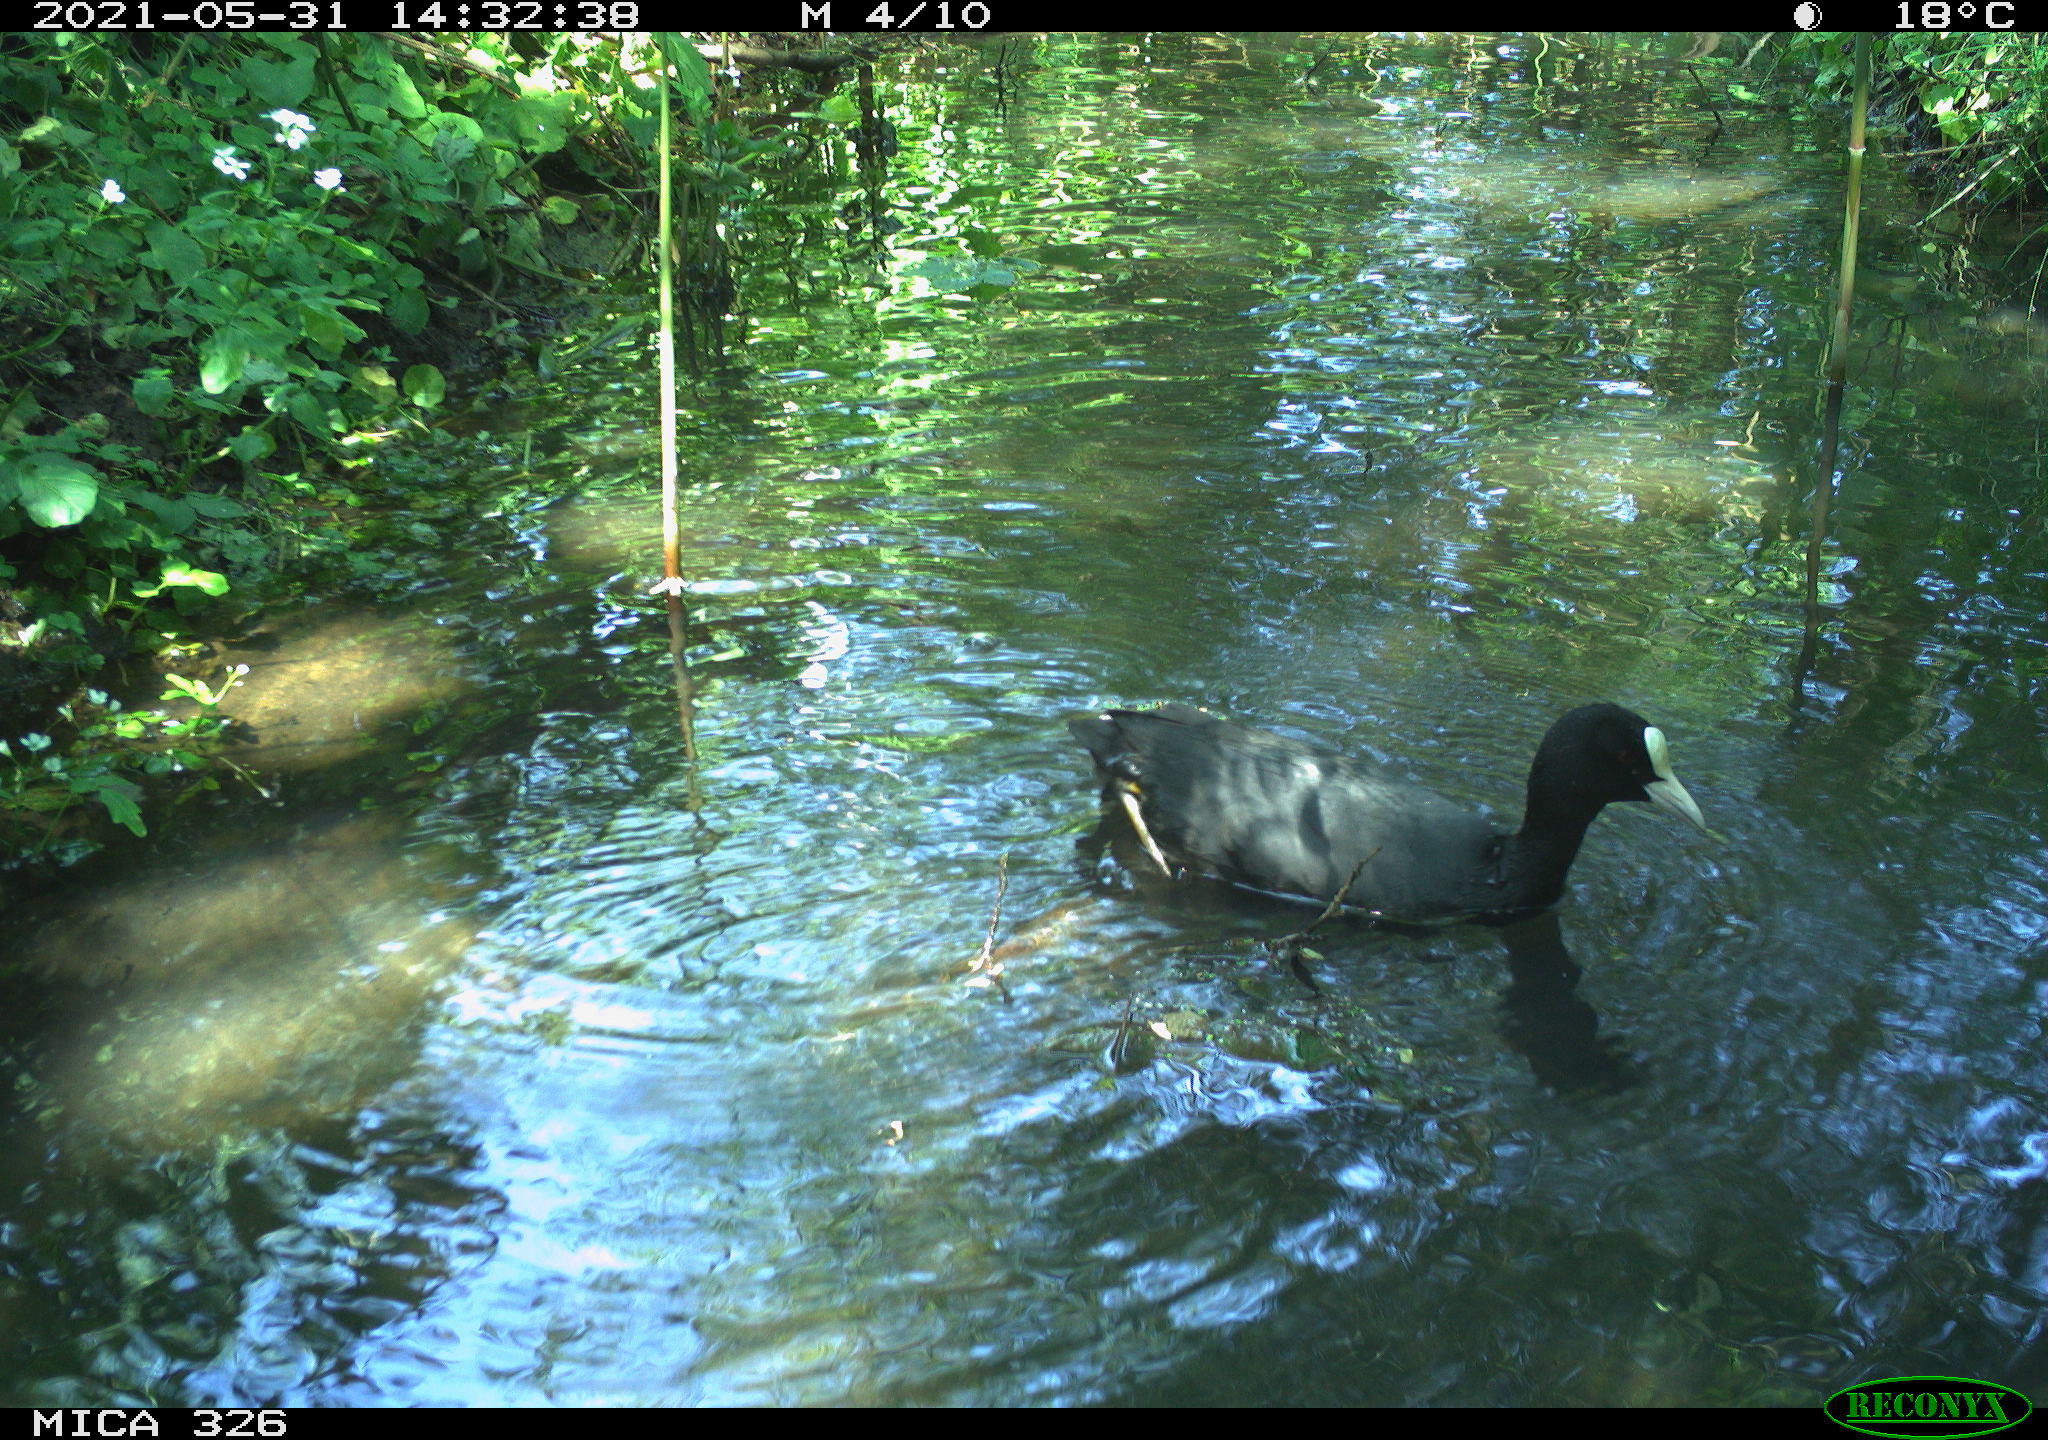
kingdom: Animalia
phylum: Chordata
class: Aves
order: Gruiformes
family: Rallidae
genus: Fulica
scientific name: Fulica atra
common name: Eurasian coot
